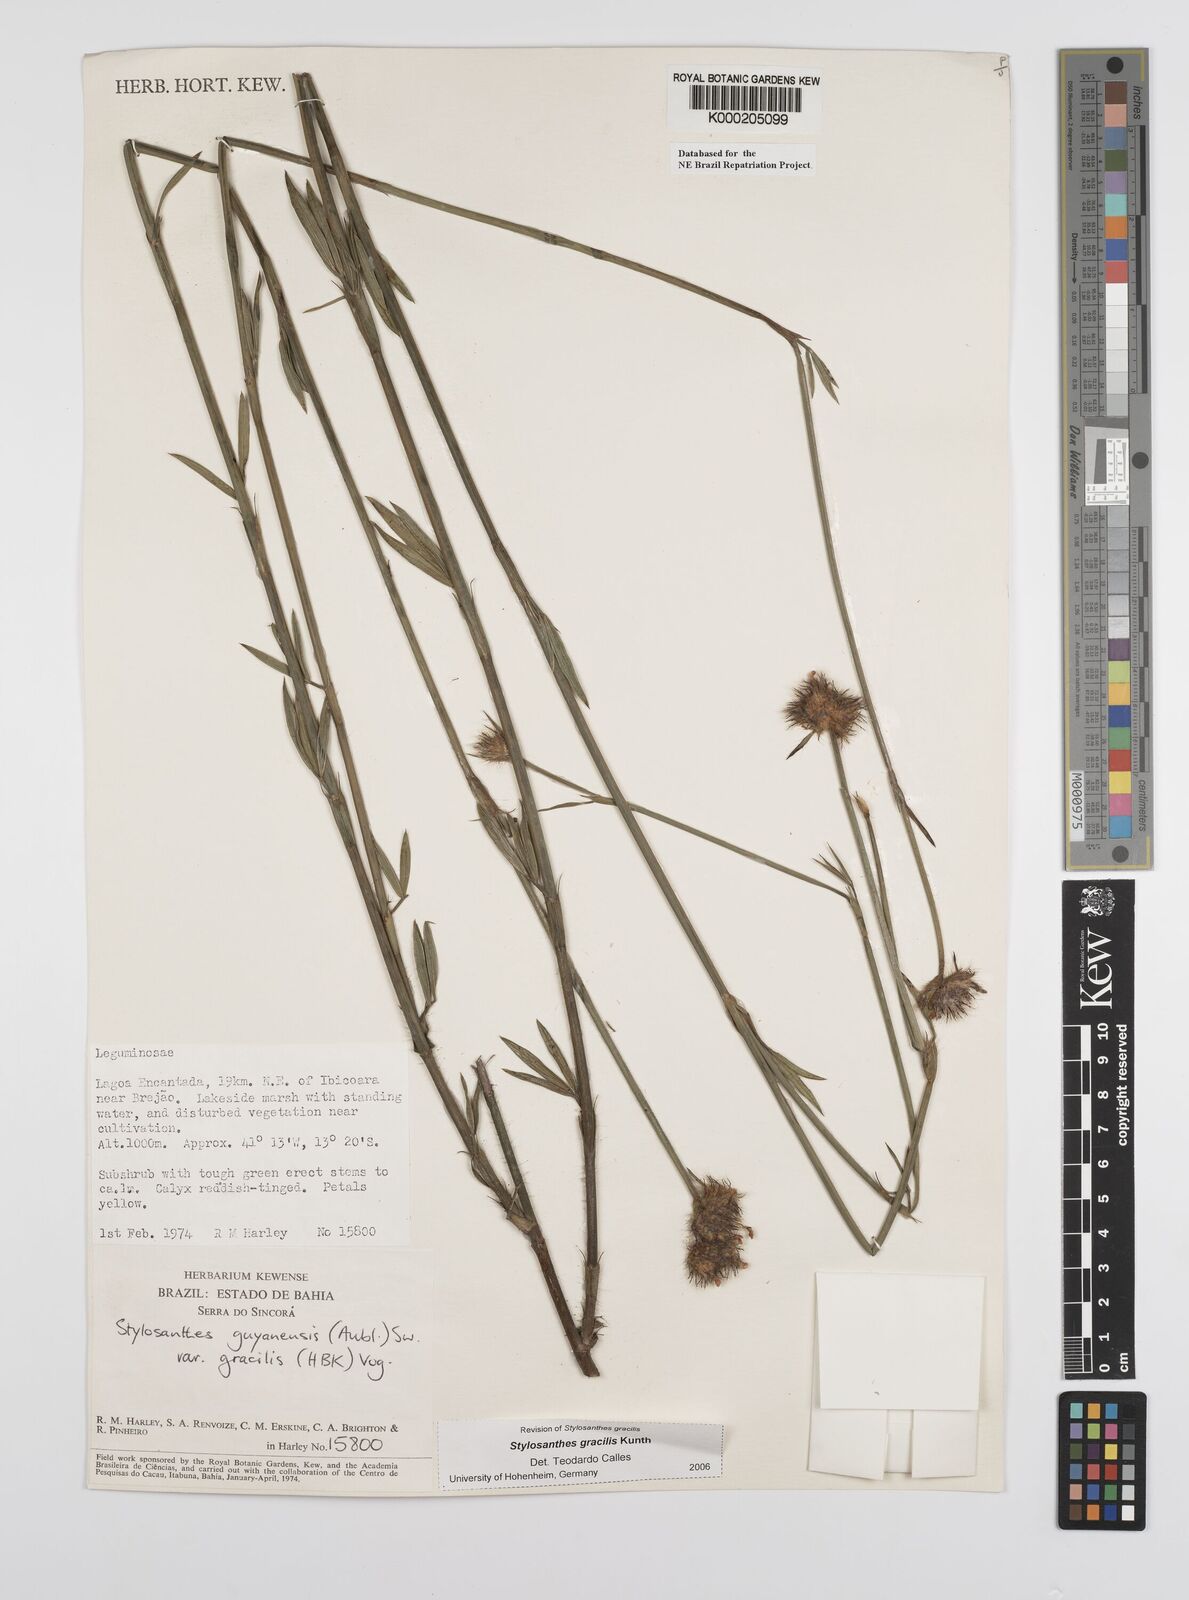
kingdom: Plantae
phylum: Tracheophyta
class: Magnoliopsida
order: Fabales
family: Fabaceae
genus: Stylosanthes
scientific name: Stylosanthes guianensis
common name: Pencil flower
